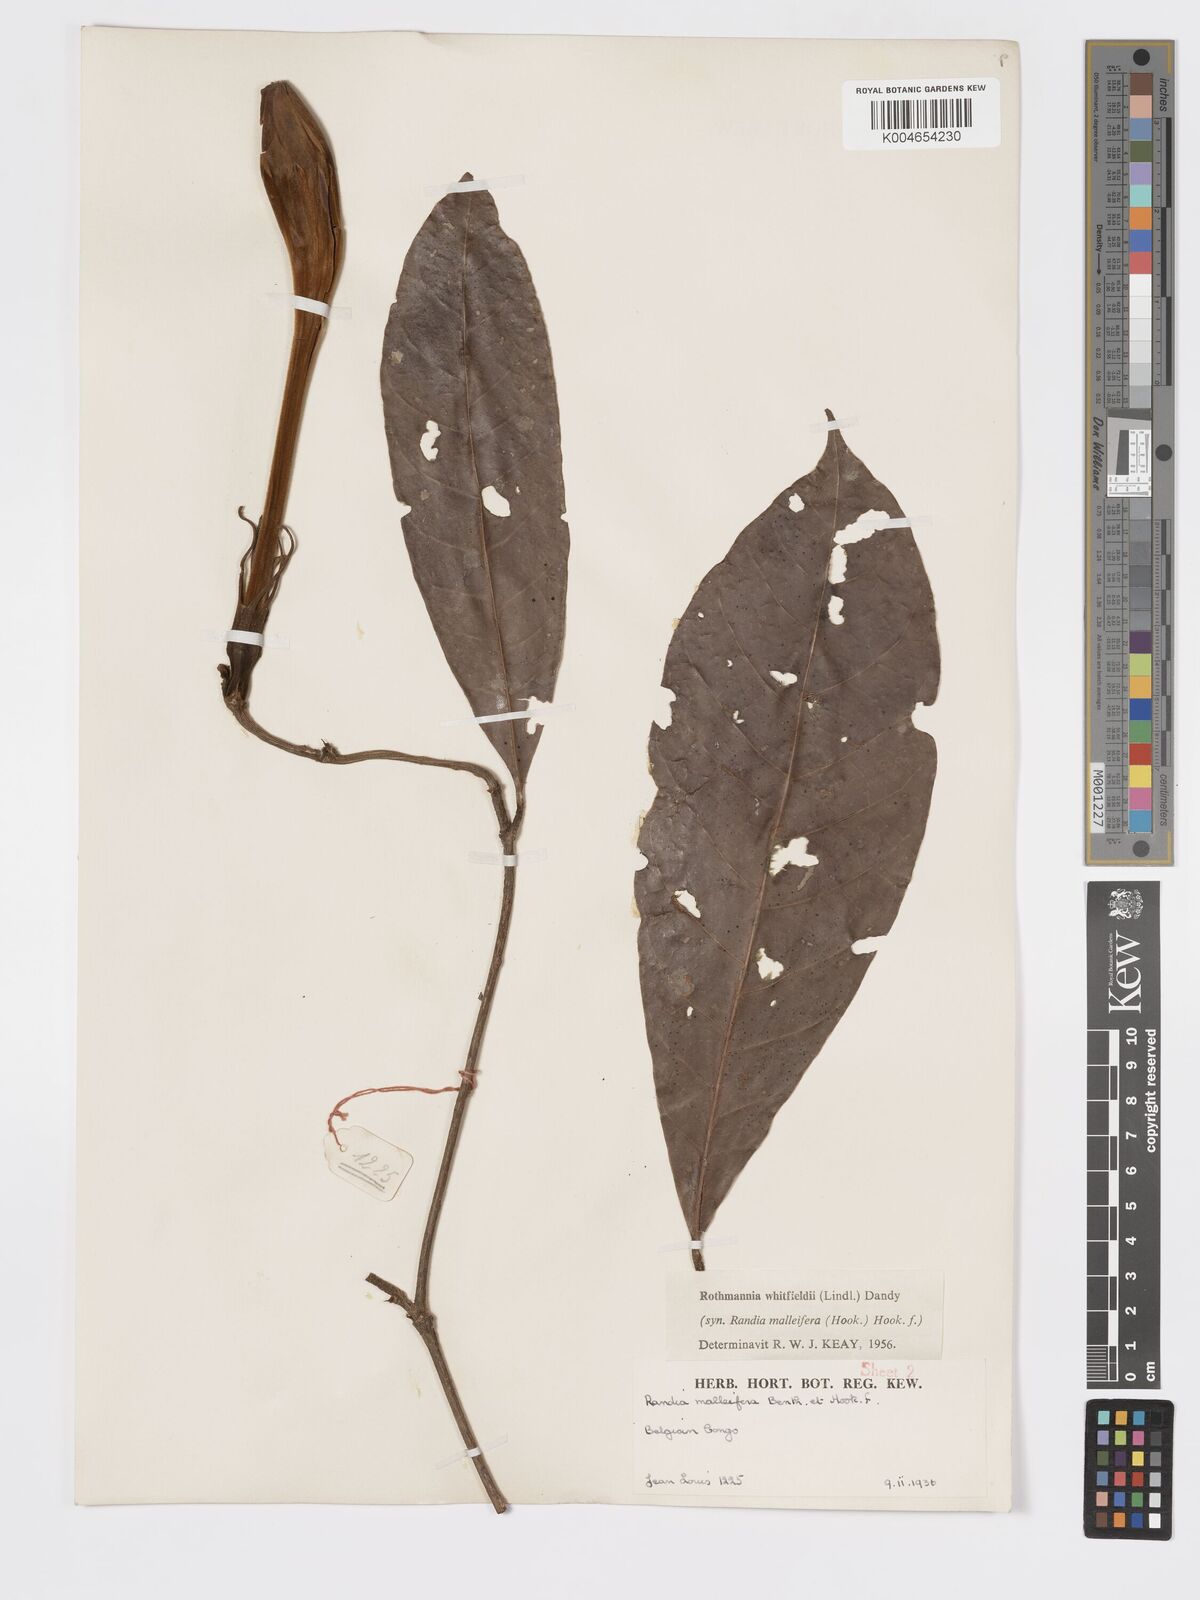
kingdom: Plantae
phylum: Tracheophyta
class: Magnoliopsida
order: Gentianales
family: Rubiaceae
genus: Rothmannia
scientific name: Rothmannia whitfieldii
